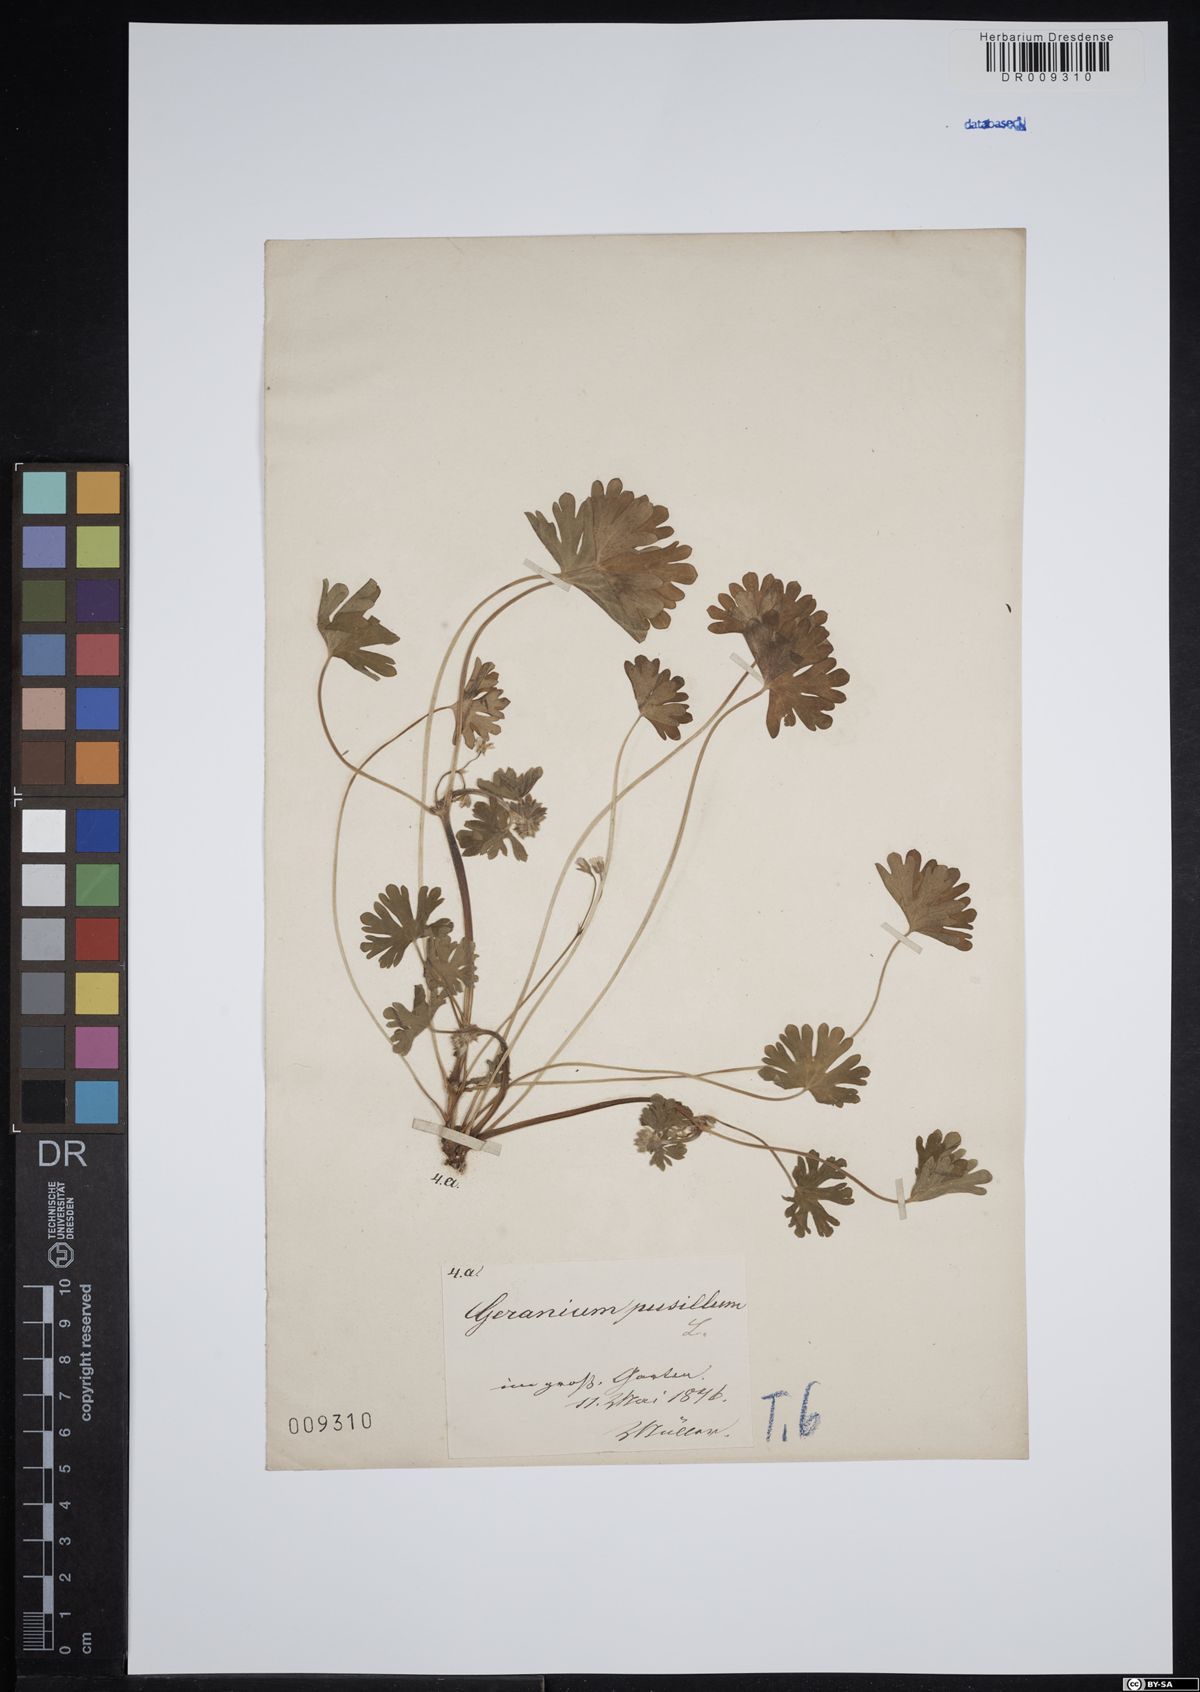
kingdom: Plantae
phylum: Tracheophyta
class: Magnoliopsida
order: Geraniales
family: Geraniaceae
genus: Geranium
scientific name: Geranium pusillum
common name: Small geranium
